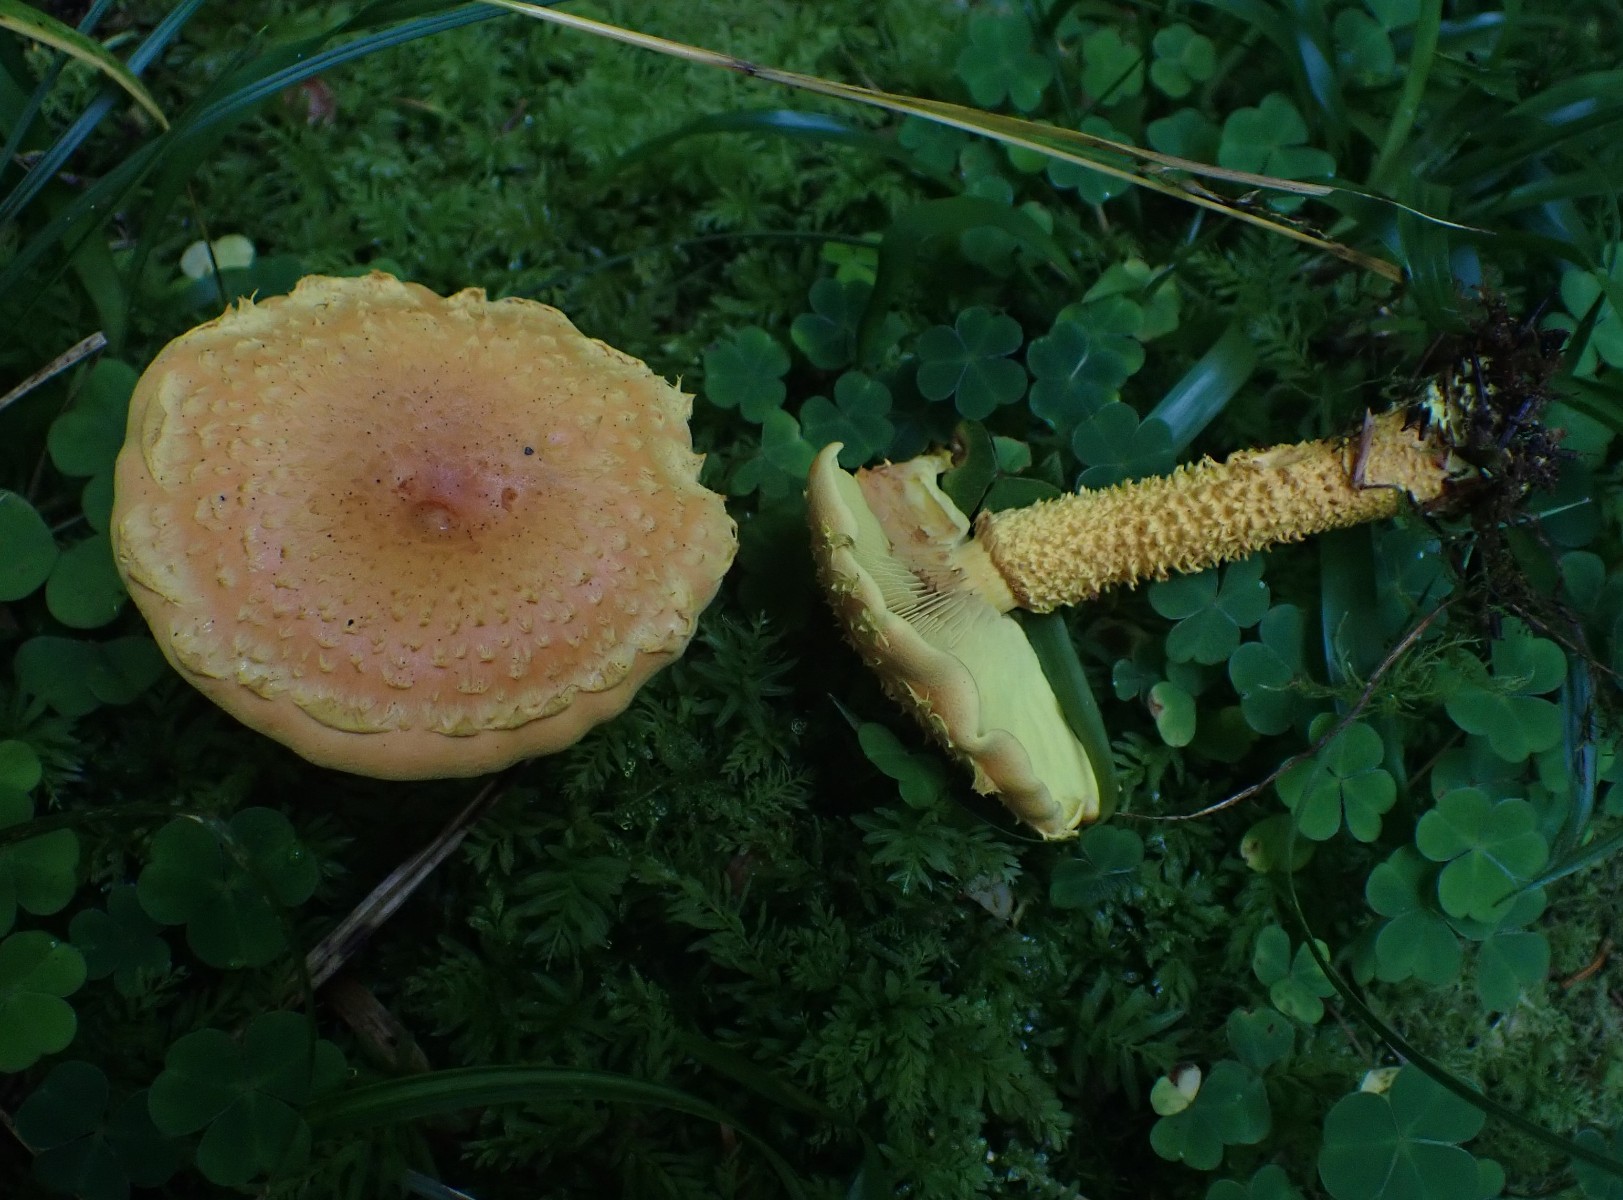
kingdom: Fungi
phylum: Basidiomycota
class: Agaricomycetes
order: Agaricales
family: Strophariaceae
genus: Pholiota
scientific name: Pholiota flammans
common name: flamme-skælhat
